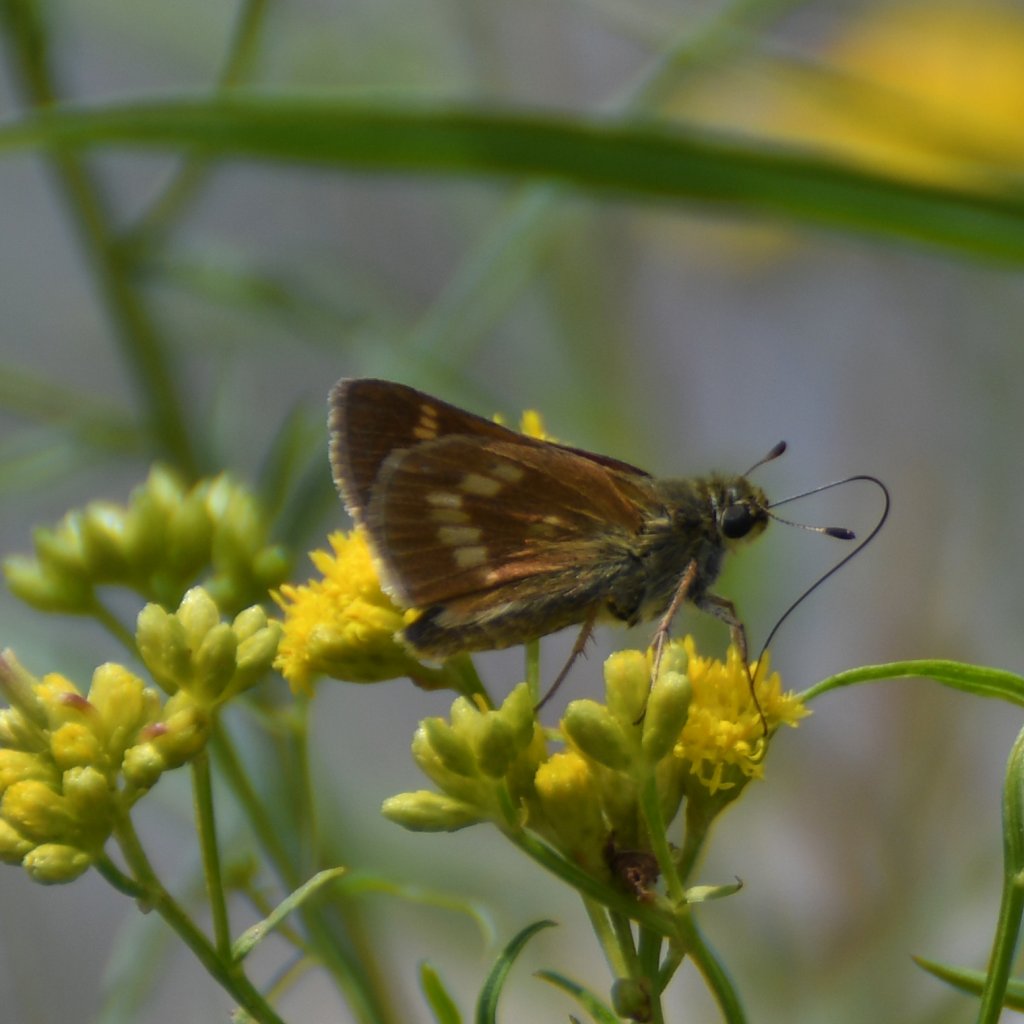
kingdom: Animalia
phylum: Arthropoda
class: Insecta
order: Lepidoptera
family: Hesperiidae
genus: Polites
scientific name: Polites
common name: Long Dash Skipper
